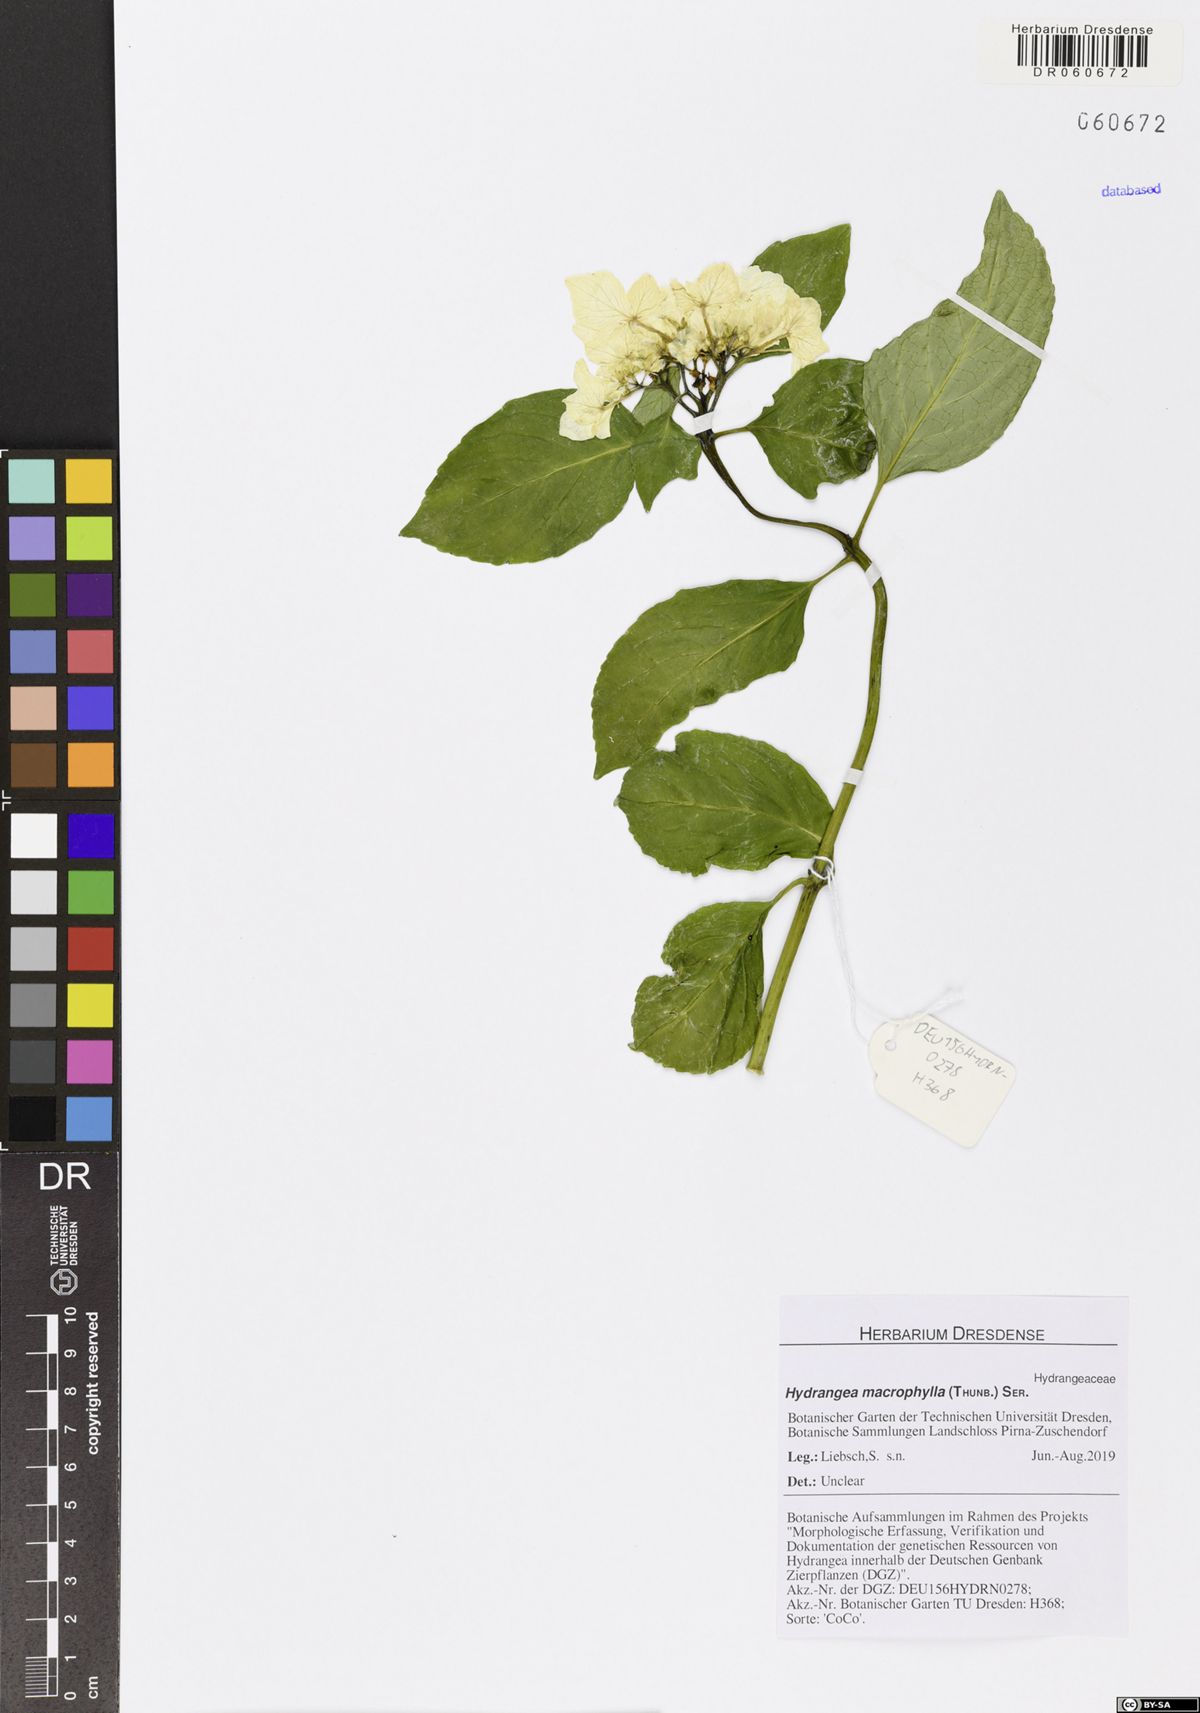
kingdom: Plantae
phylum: Tracheophyta
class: Magnoliopsida
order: Cornales
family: Hydrangeaceae
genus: Hydrangea
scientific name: Hydrangea macrophylla
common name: Hydrangea
